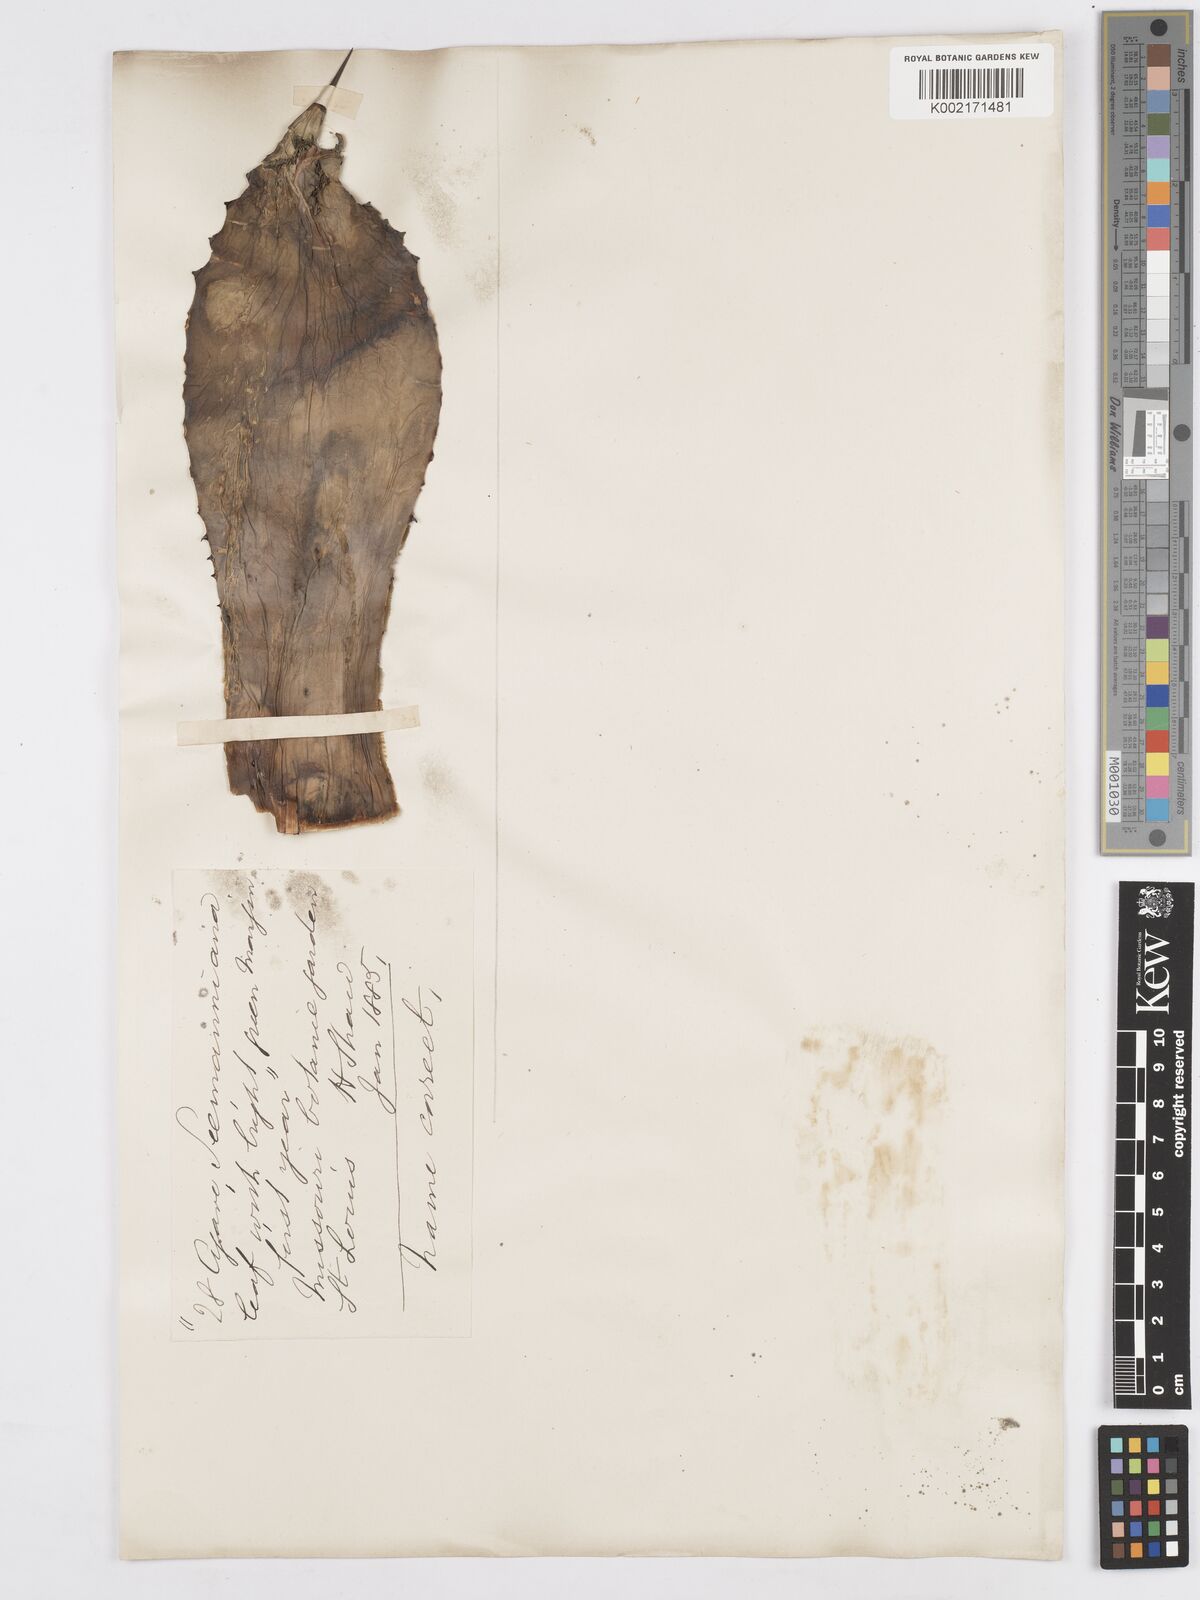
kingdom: Plantae
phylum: Tracheophyta
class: Liliopsida
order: Asparagales
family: Asparagaceae
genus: Agave
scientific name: Agave seemanniana
